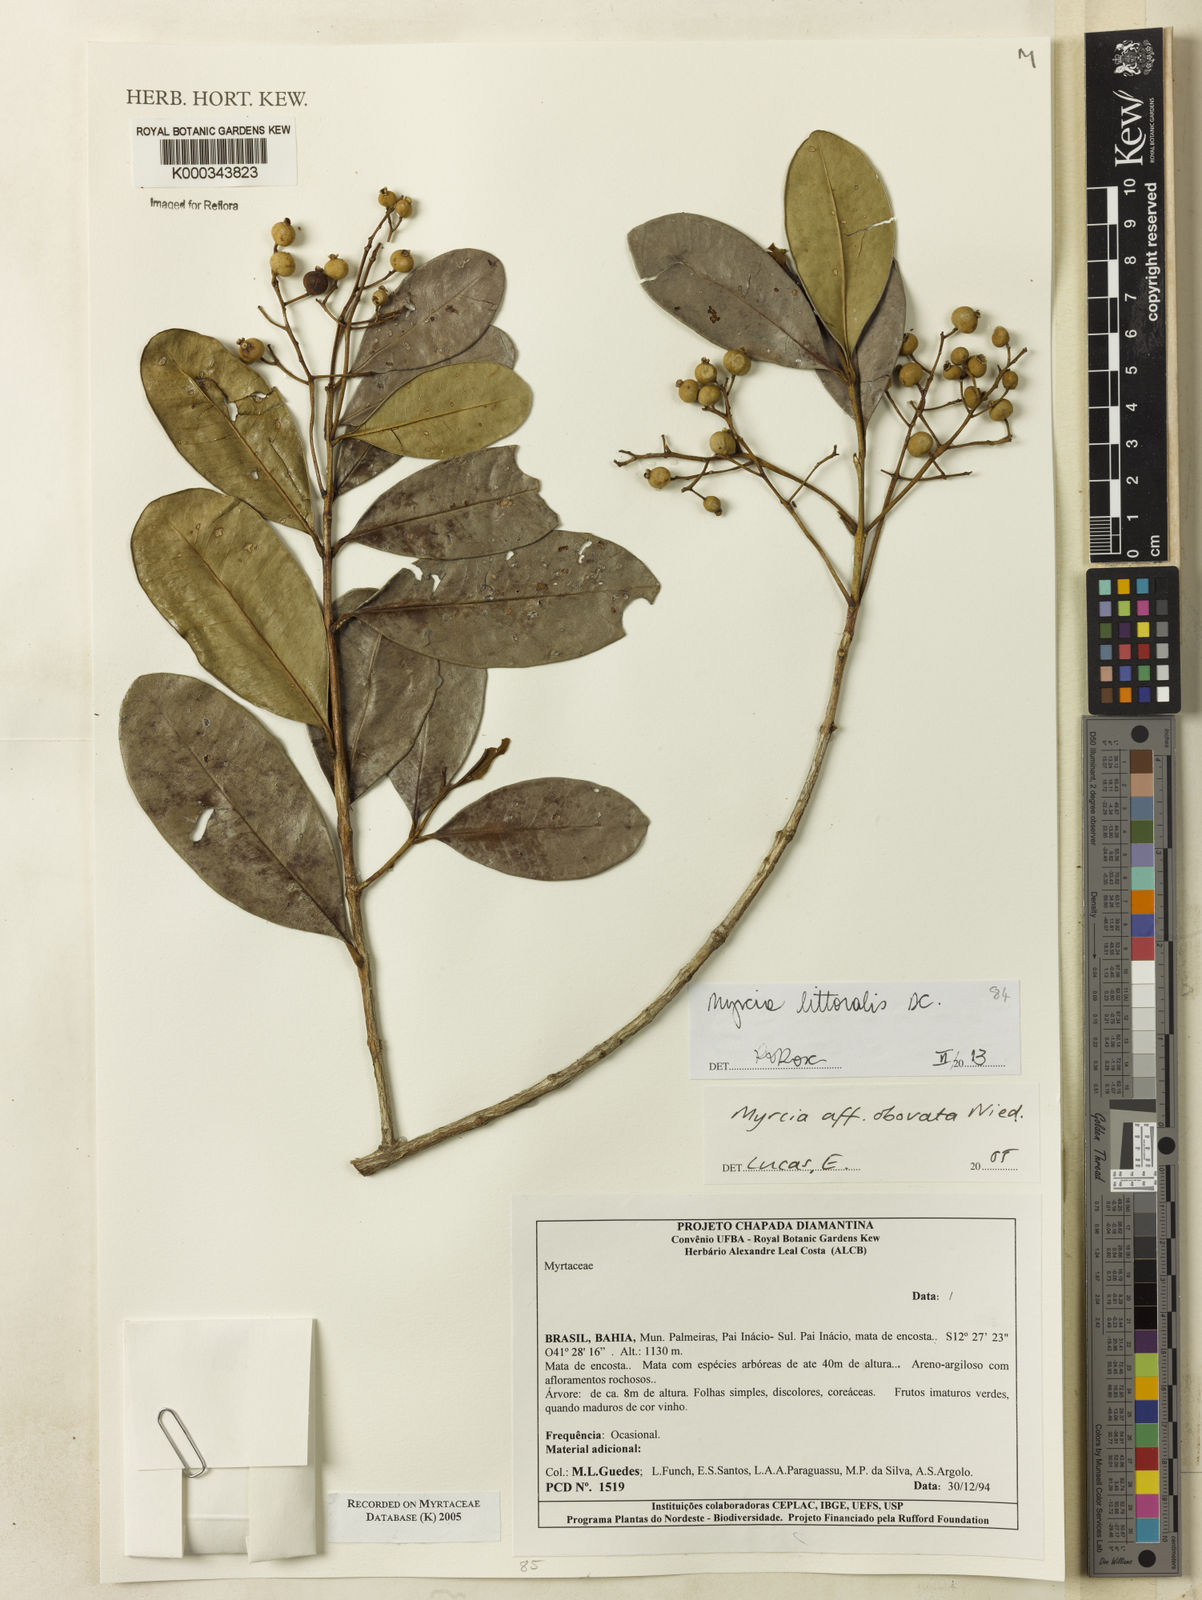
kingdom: Plantae
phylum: Tracheophyta
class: Magnoliopsida
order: Myrtales
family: Myrtaceae
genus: Myrcia
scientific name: Myrcia obovata
